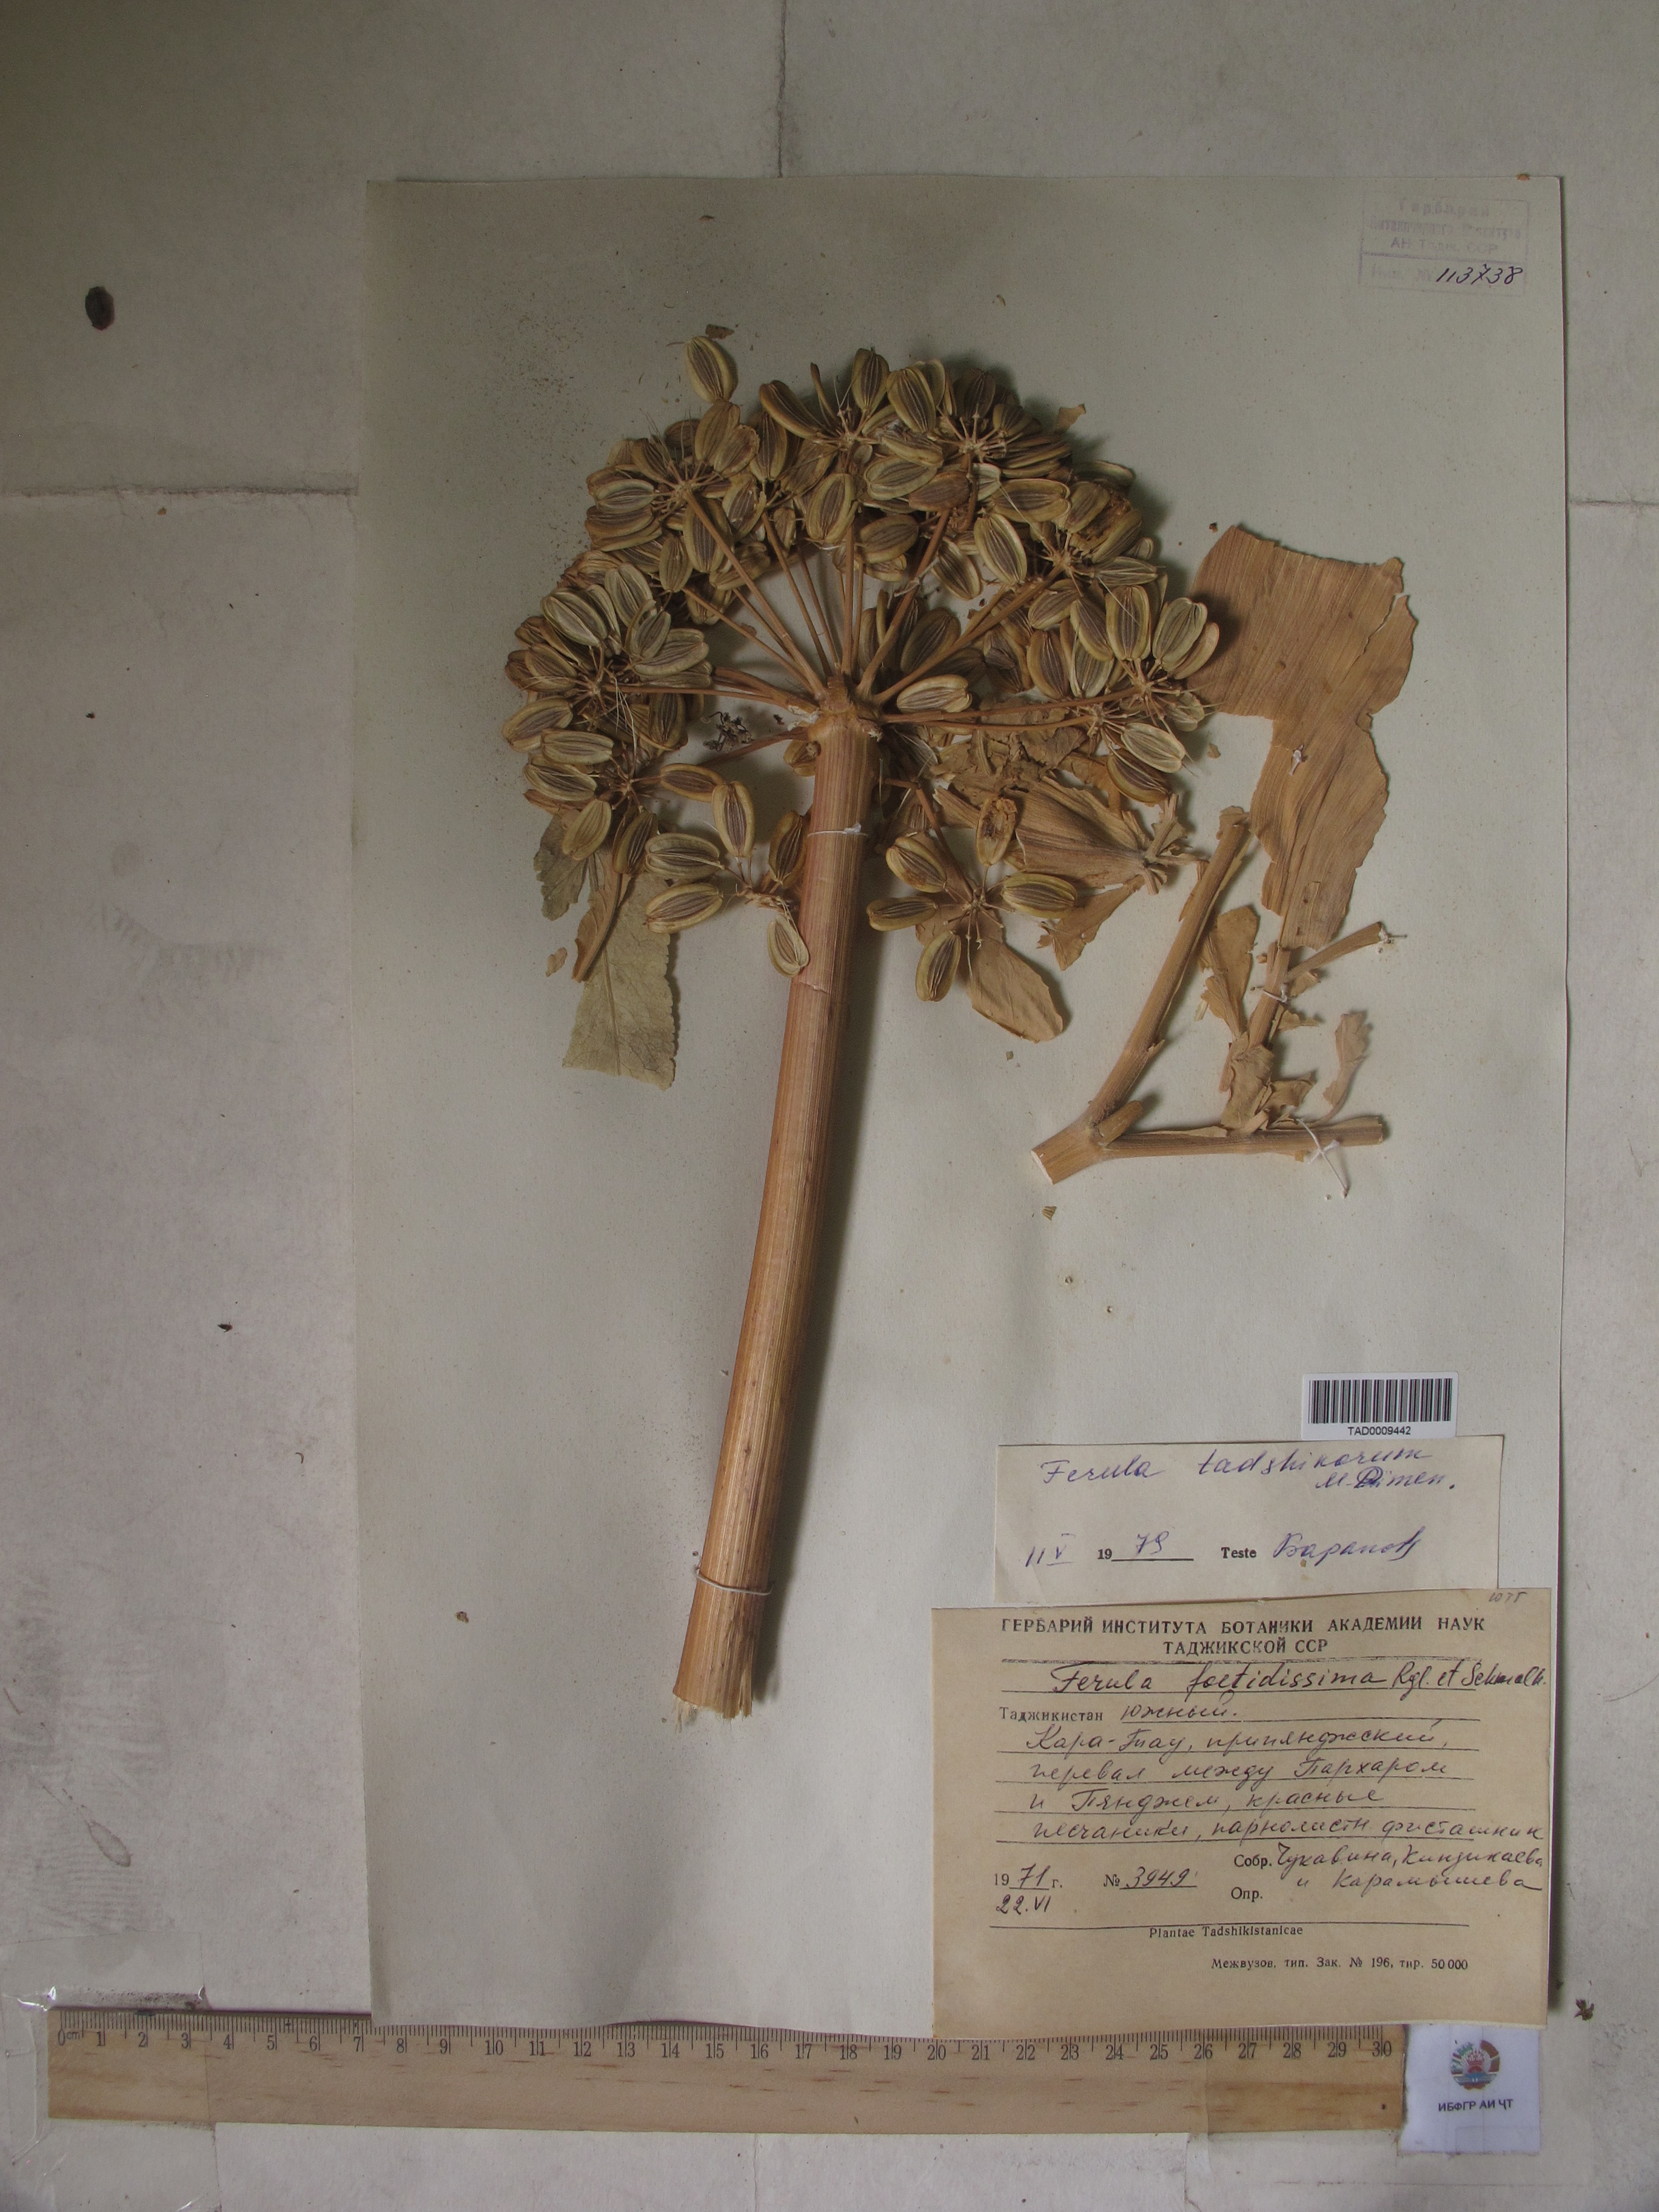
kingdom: Plantae
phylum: Tracheophyta
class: Magnoliopsida
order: Apiales
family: Apiaceae
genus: Ferula
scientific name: Ferula tadshikorum
